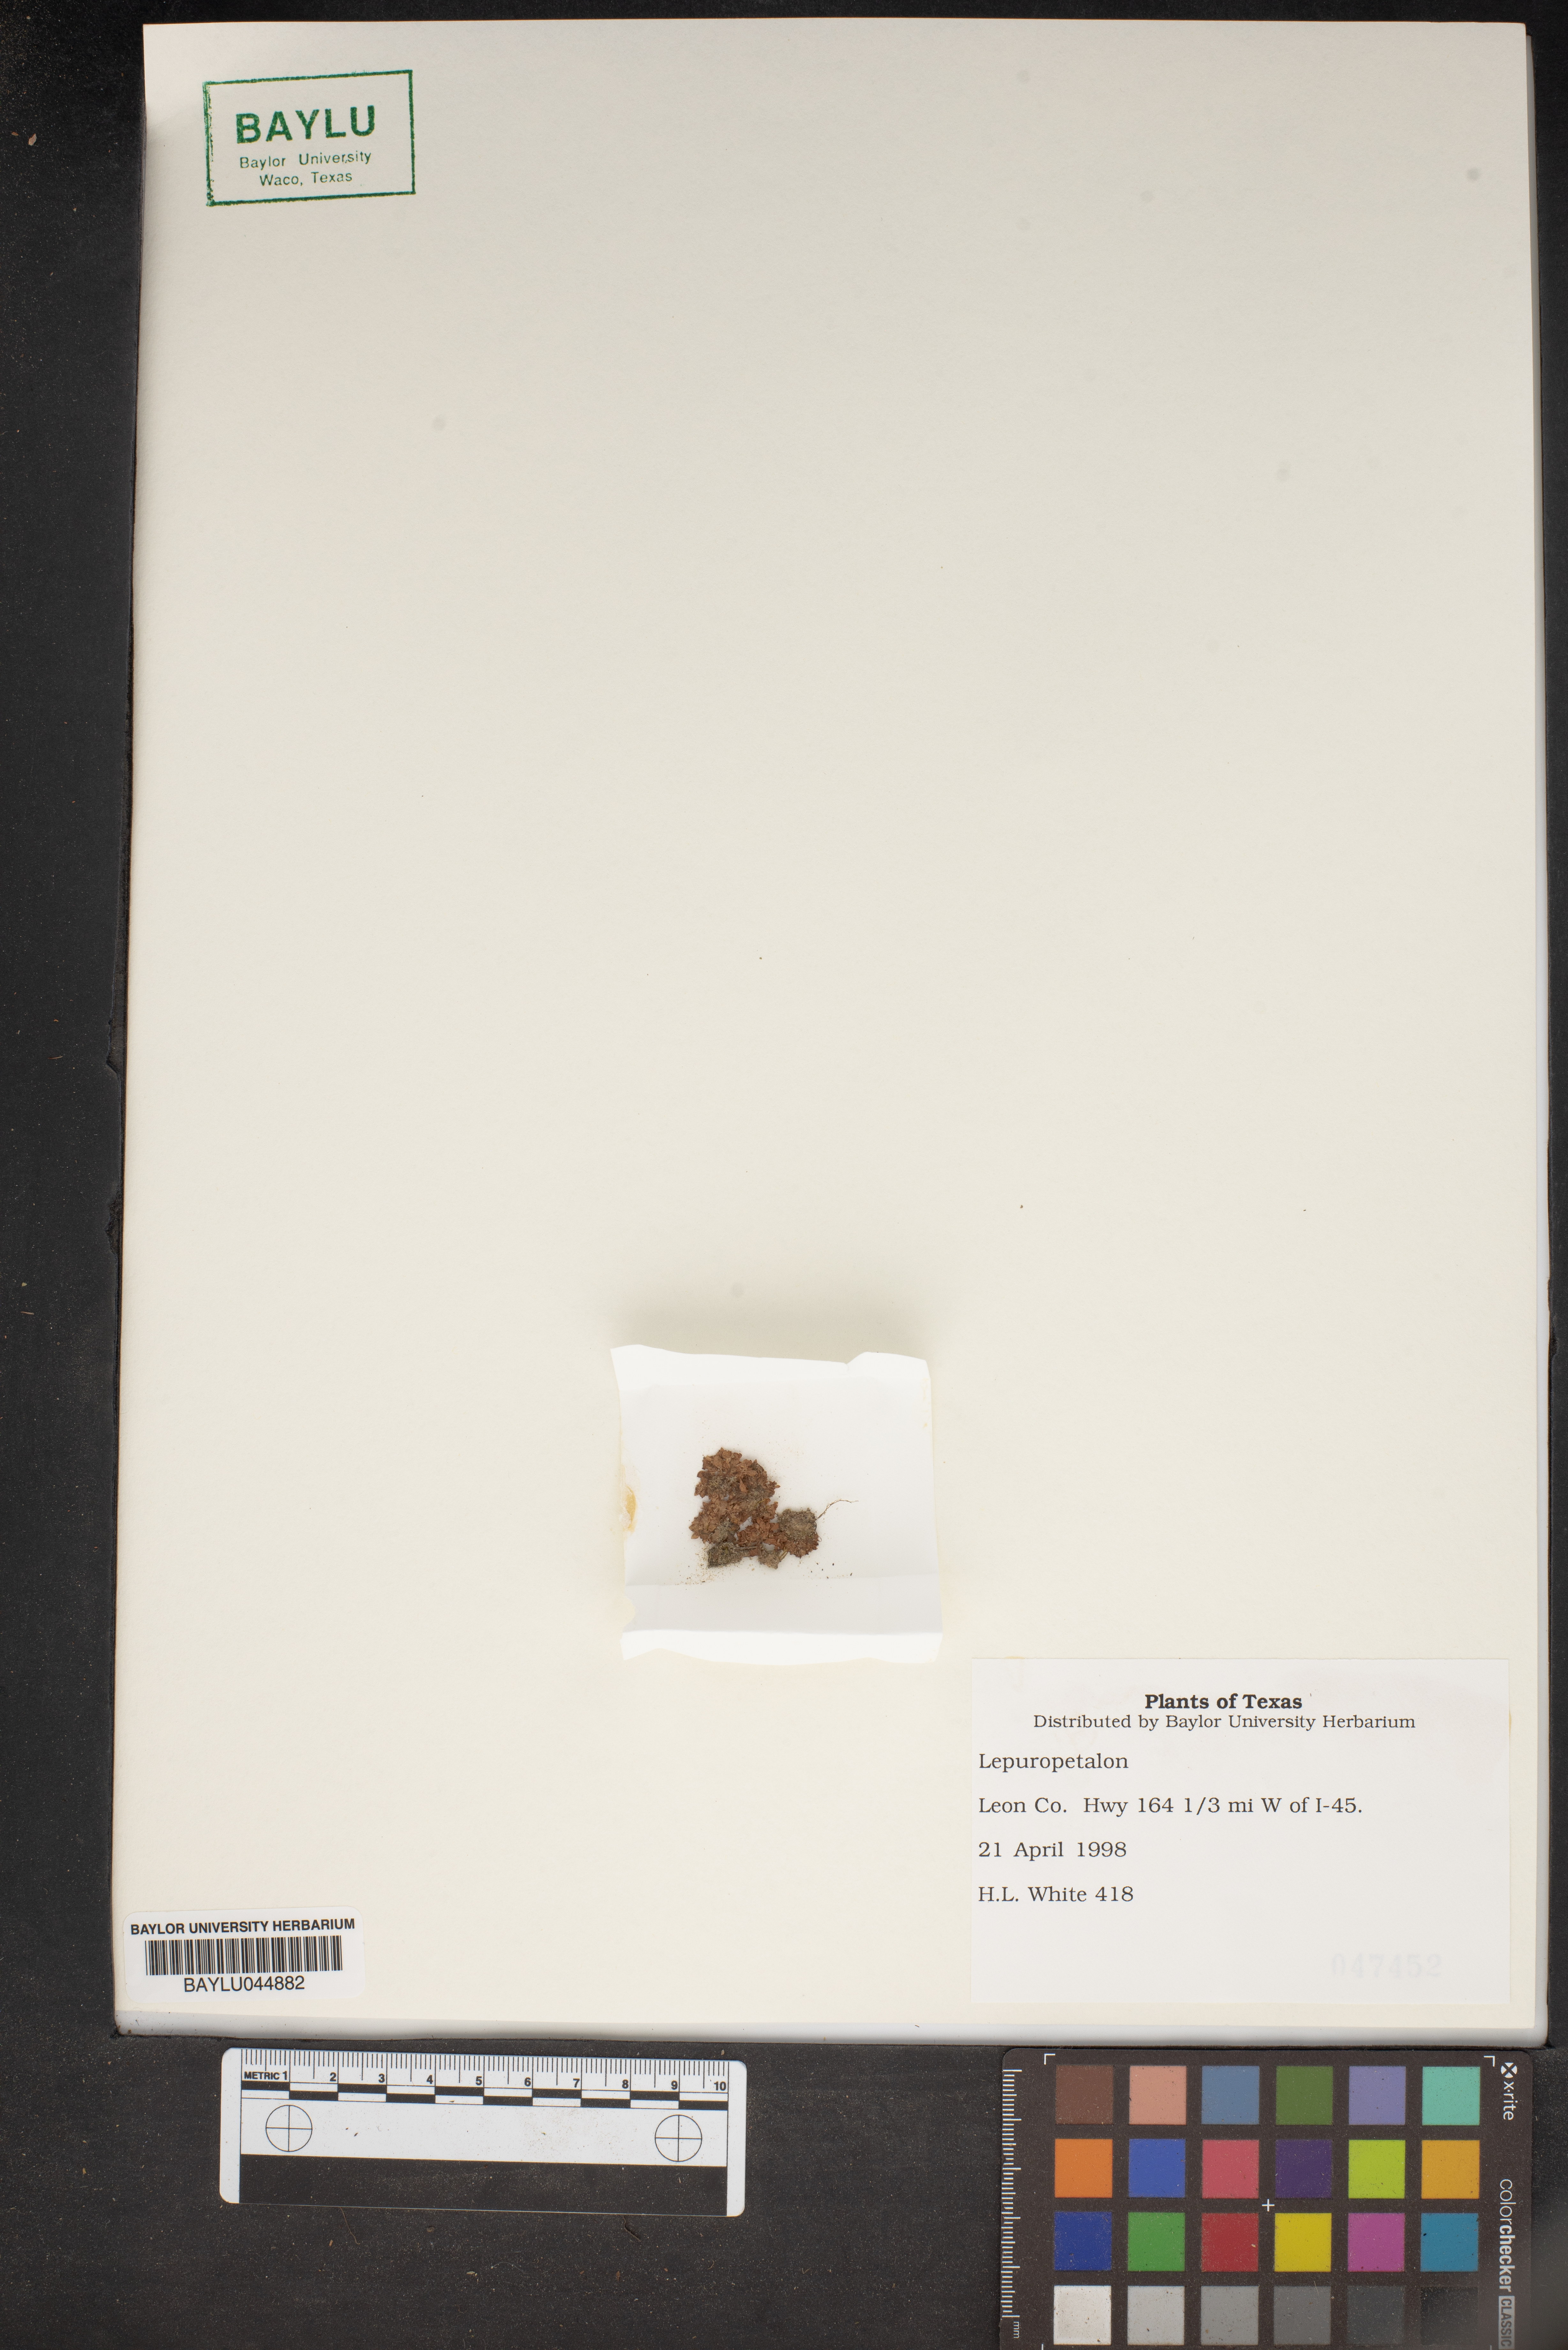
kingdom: Plantae
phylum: Tracheophyta
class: Magnoliopsida
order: Celastrales
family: Parnassiaceae
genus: Lepuropetalon
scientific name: Lepuropetalon
